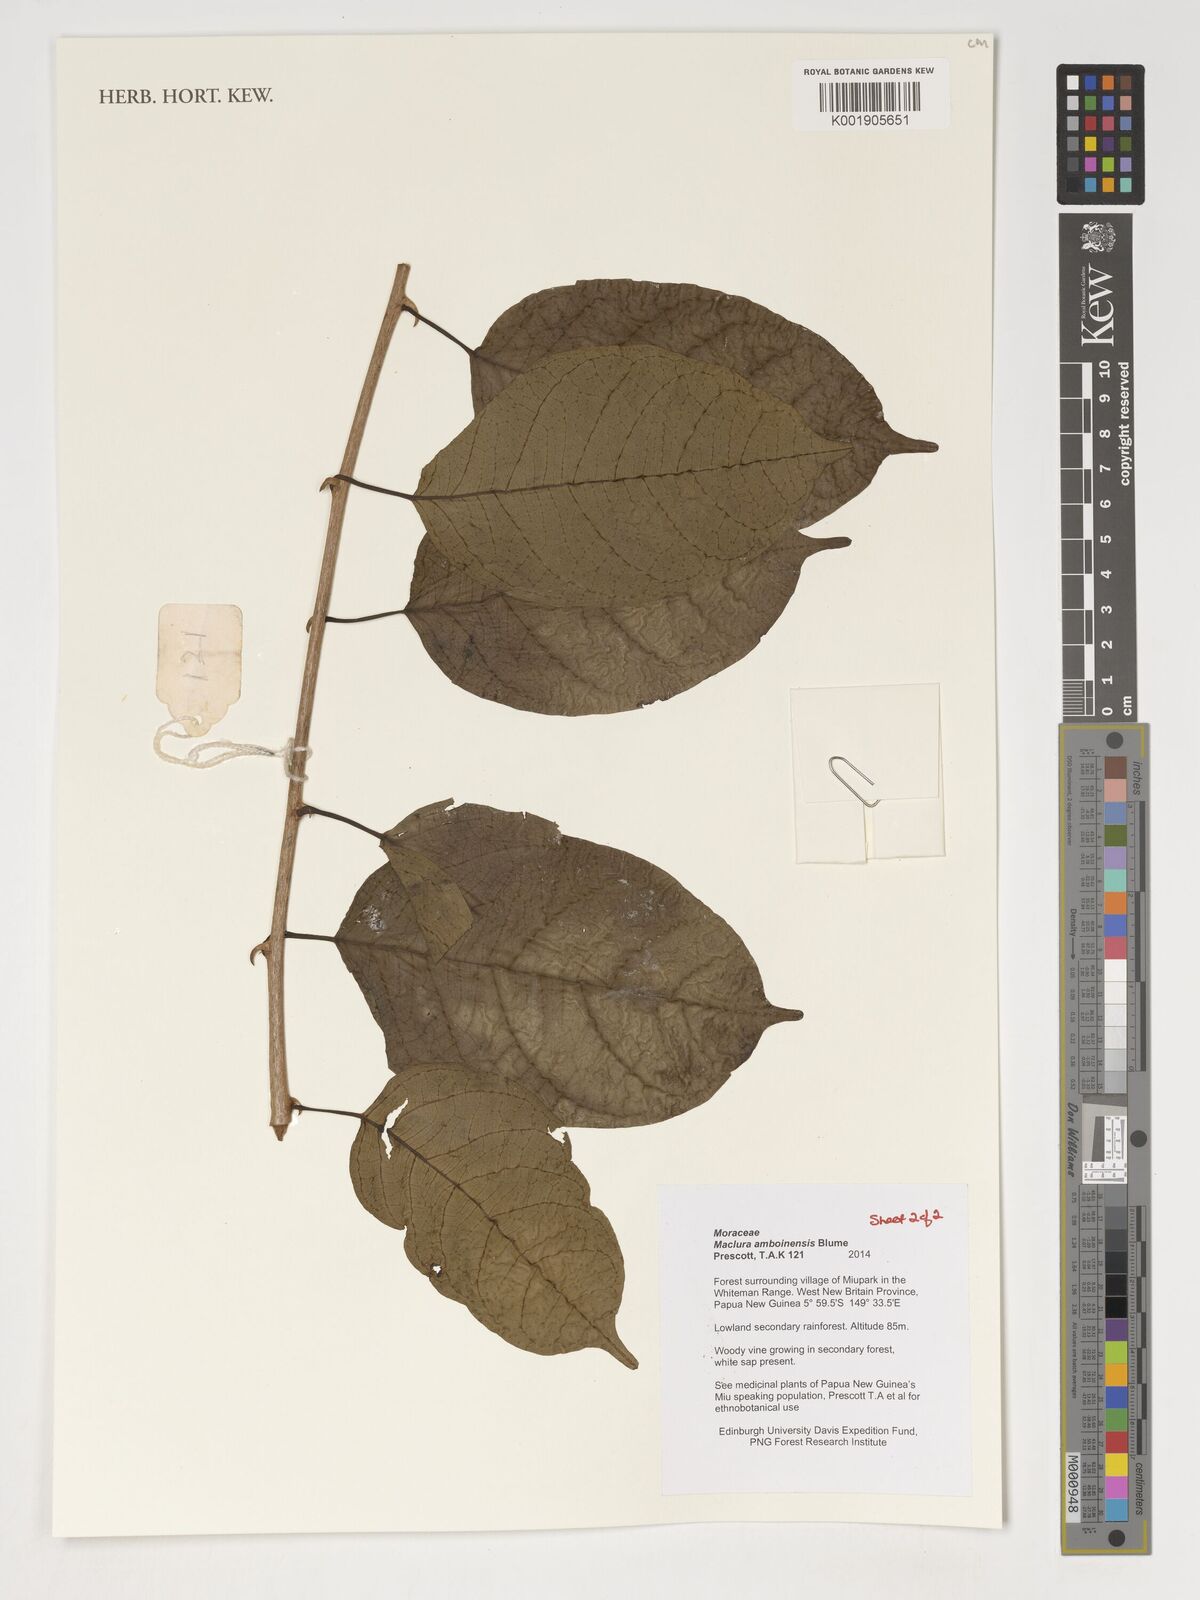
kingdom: Plantae
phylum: Tracheophyta
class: Magnoliopsida
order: Rosales
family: Moraceae
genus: Maclura
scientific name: Maclura cochinchinensis
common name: Cockspurthorn
